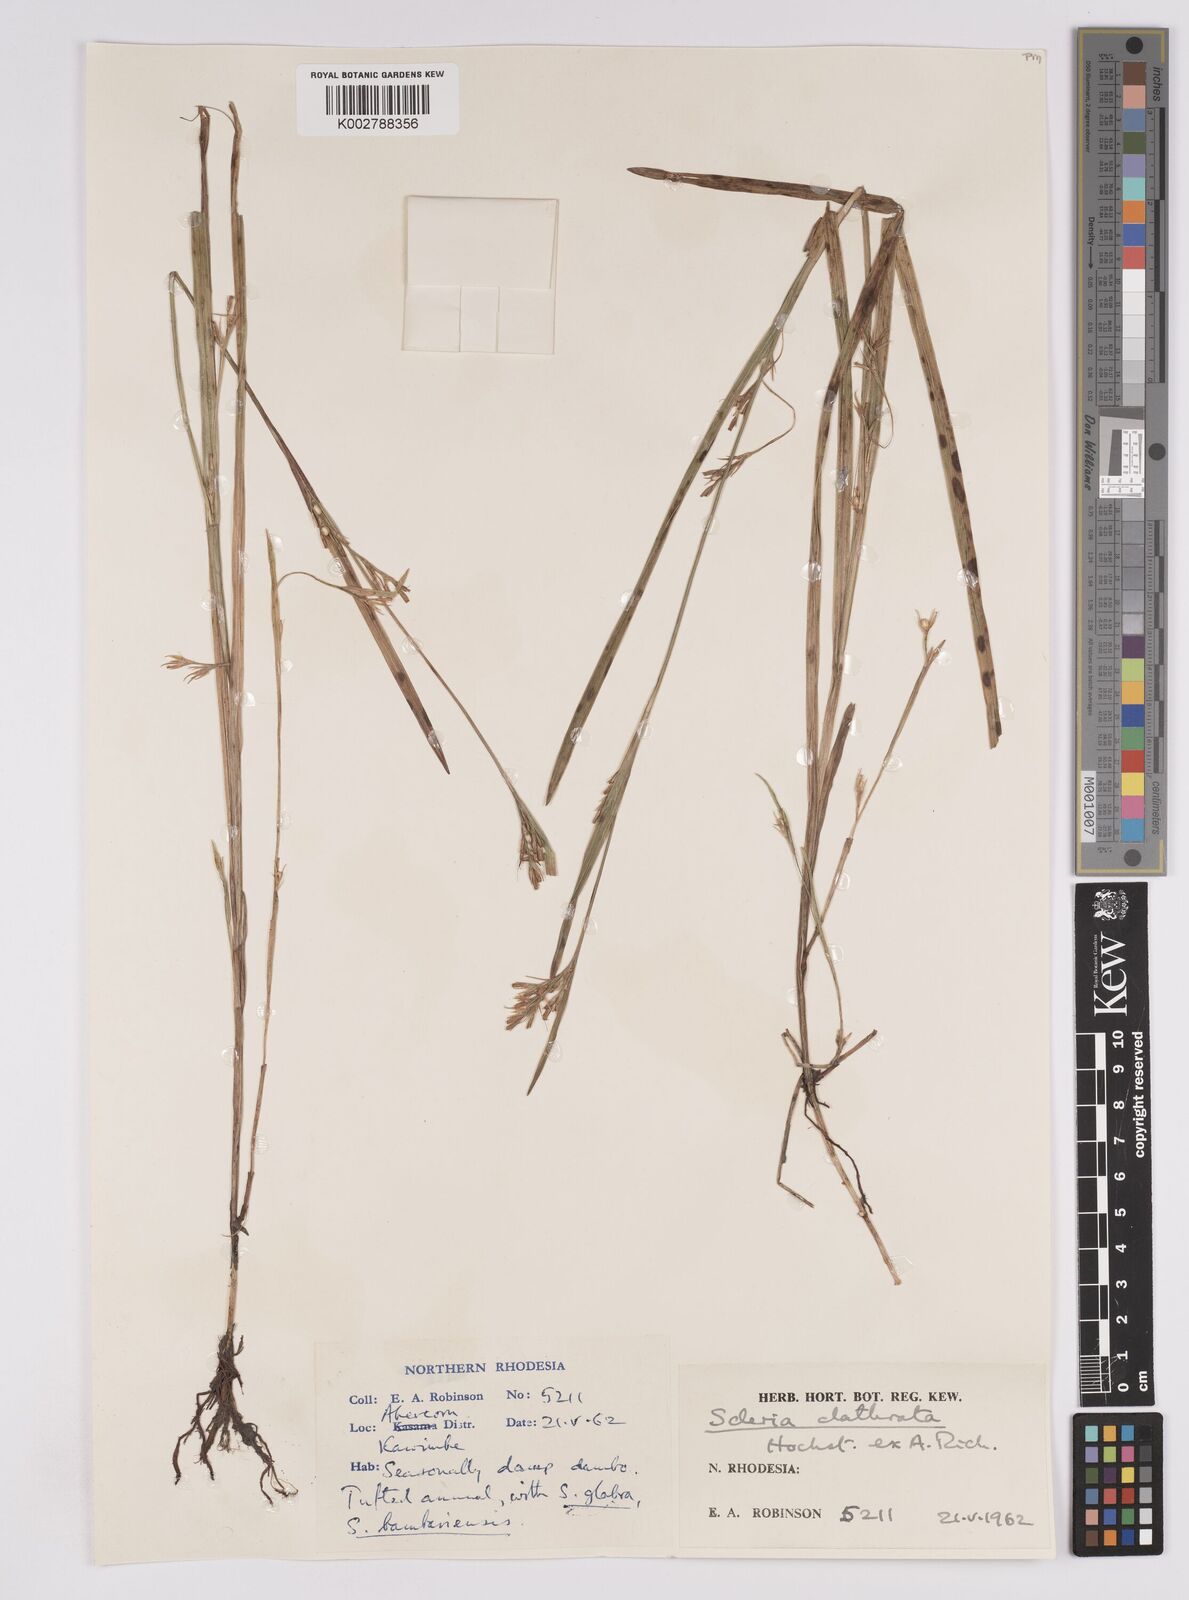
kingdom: Plantae
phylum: Tracheophyta
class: Liliopsida
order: Poales
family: Cyperaceae
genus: Scleria
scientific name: Scleria clathrata
